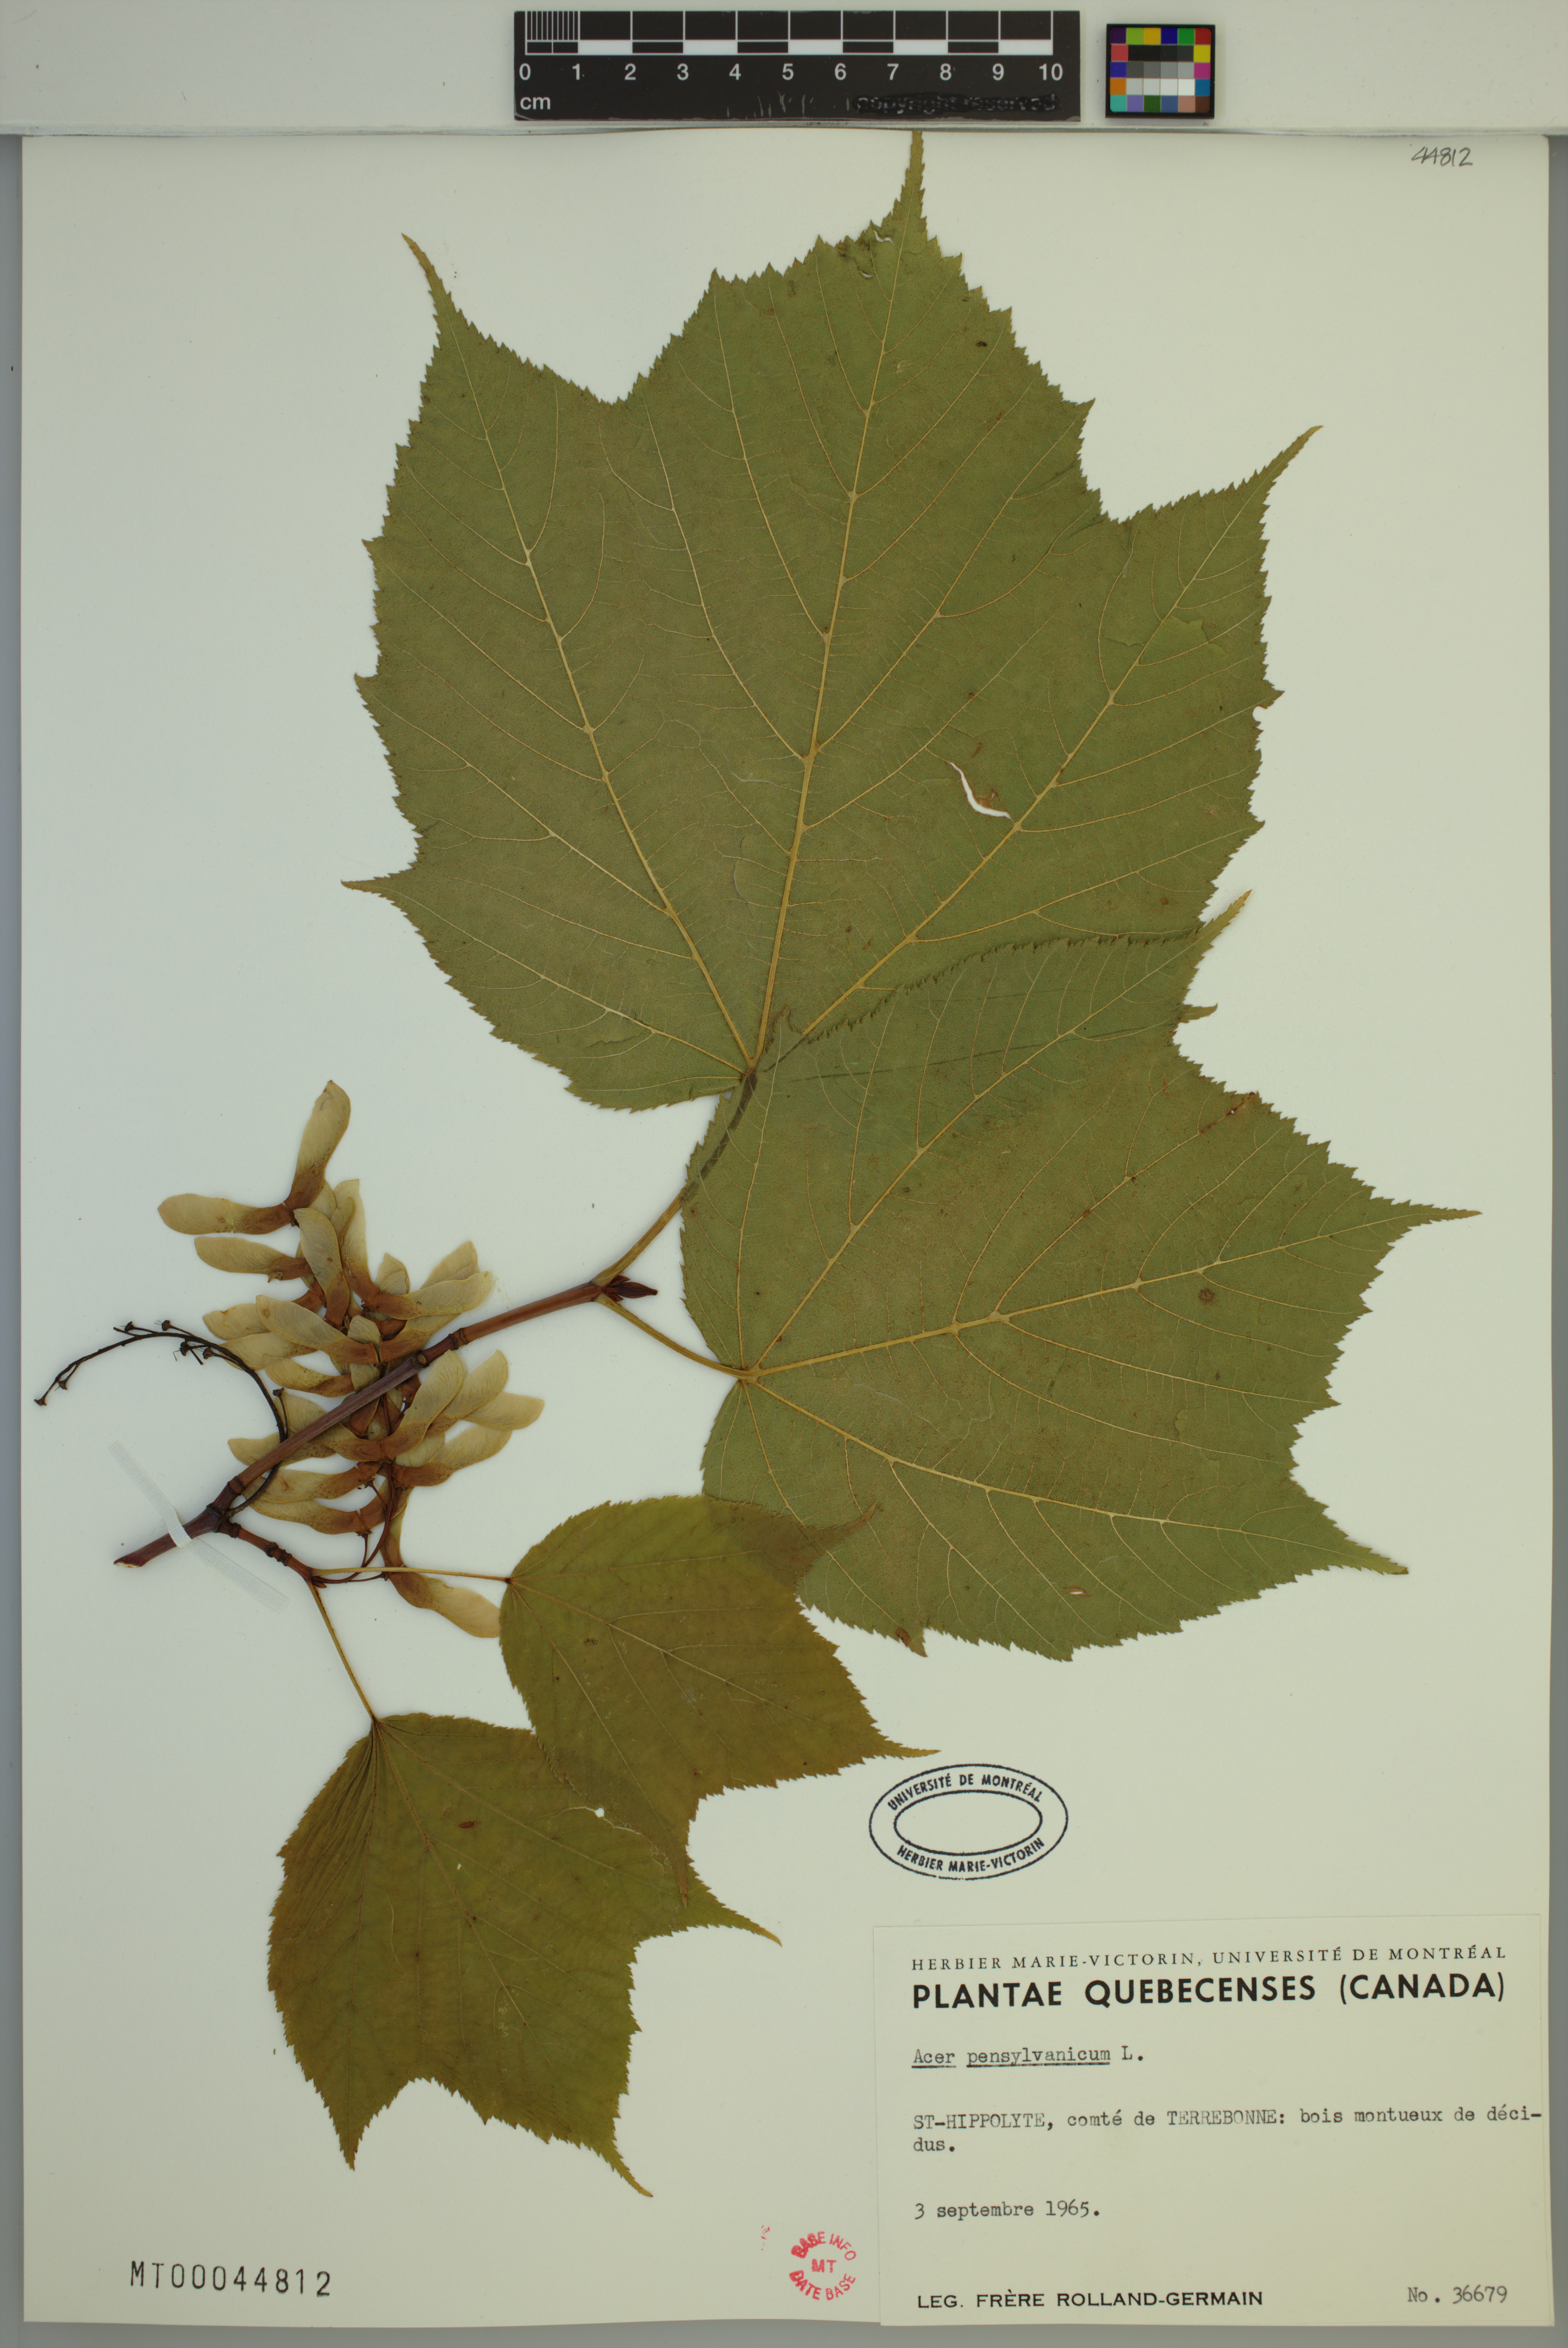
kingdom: Plantae
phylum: Tracheophyta
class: Magnoliopsida
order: Sapindales
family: Sapindaceae
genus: Acer
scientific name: Acer pensylvanicum
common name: Moosewood
